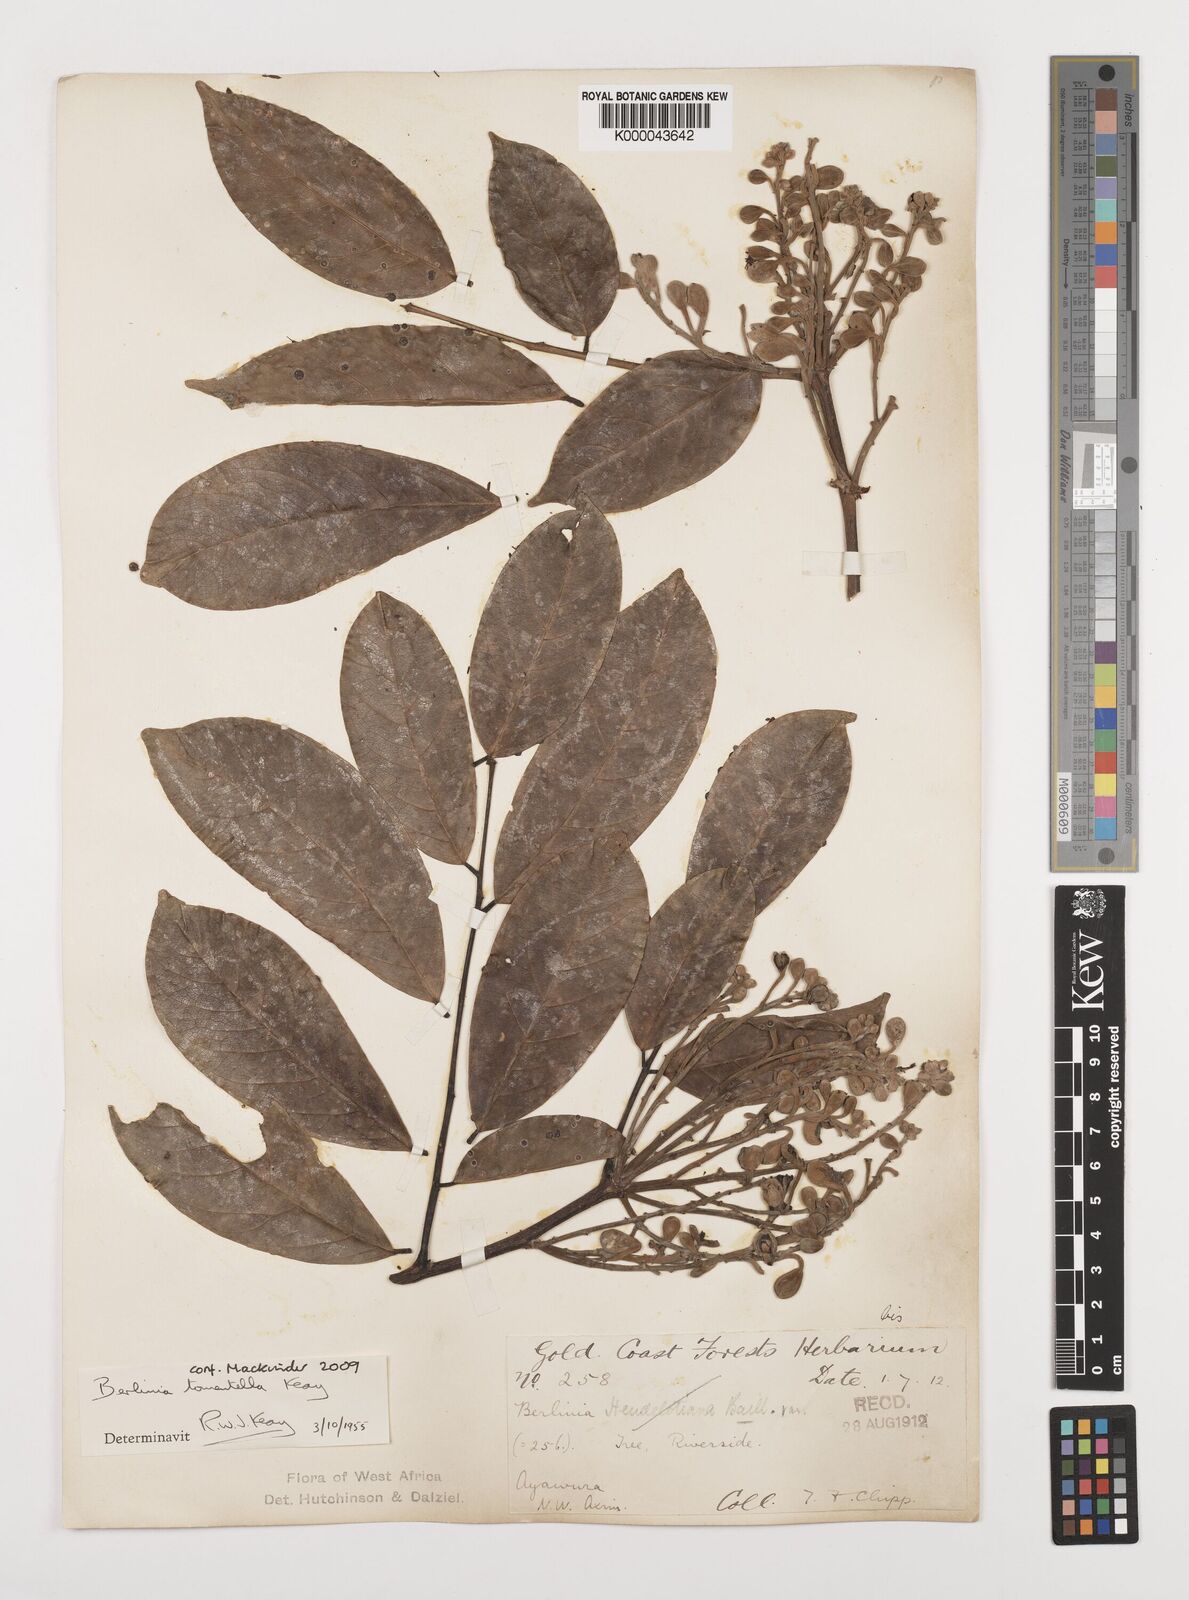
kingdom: Plantae
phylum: Tracheophyta
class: Magnoliopsida
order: Fabales
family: Fabaceae
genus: Berlinia
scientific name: Berlinia tomentella
